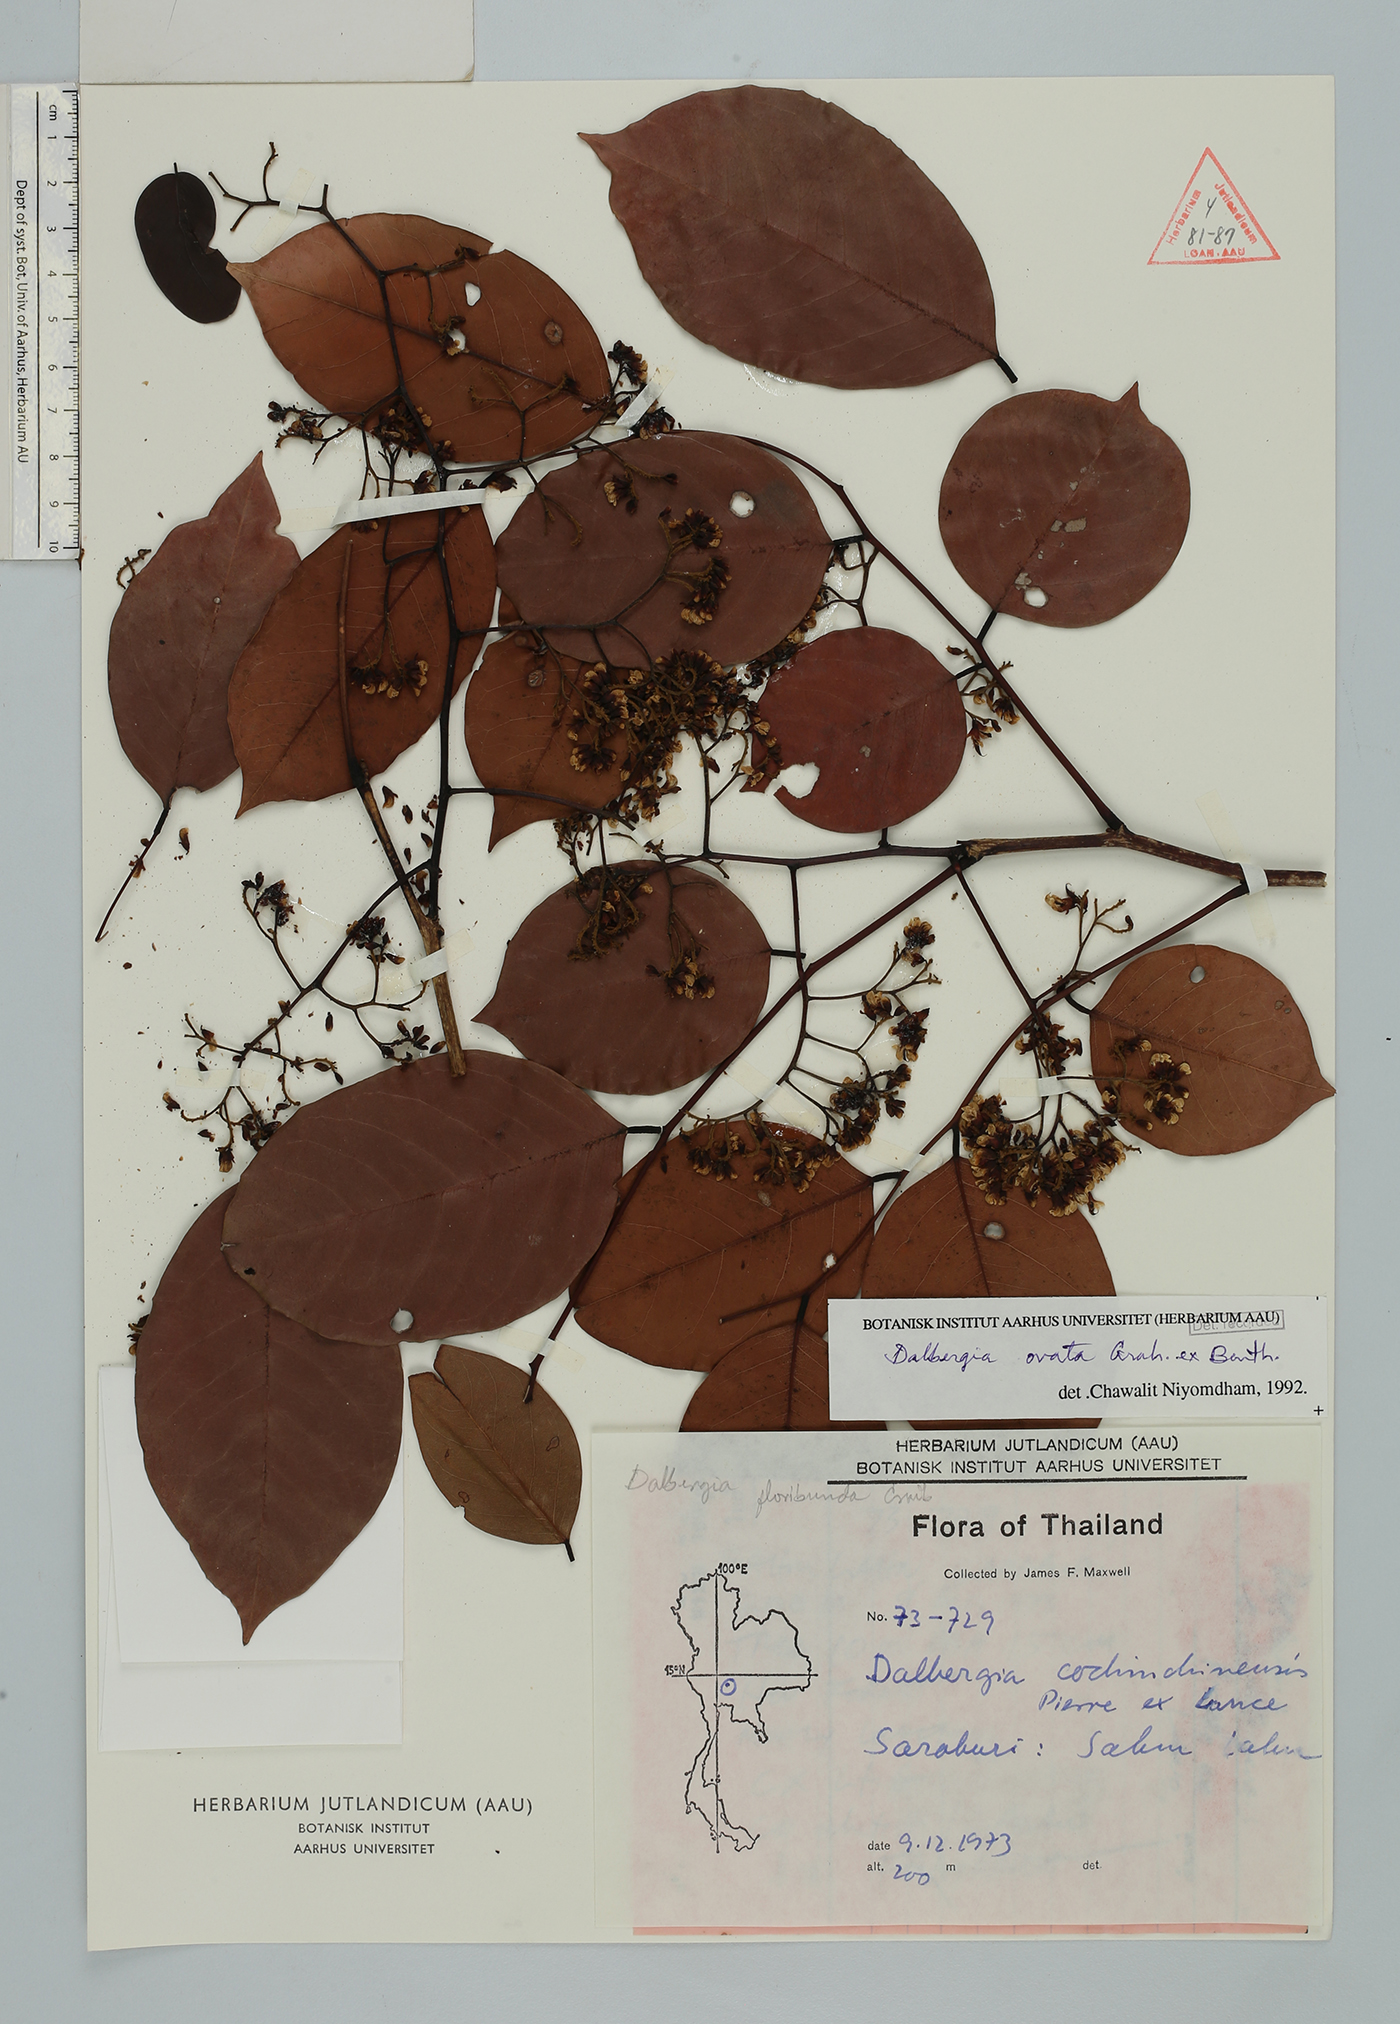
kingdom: Plantae
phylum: Tracheophyta
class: Magnoliopsida
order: Fabales
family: Fabaceae
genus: Dalbergia
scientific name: Dalbergia ovata
